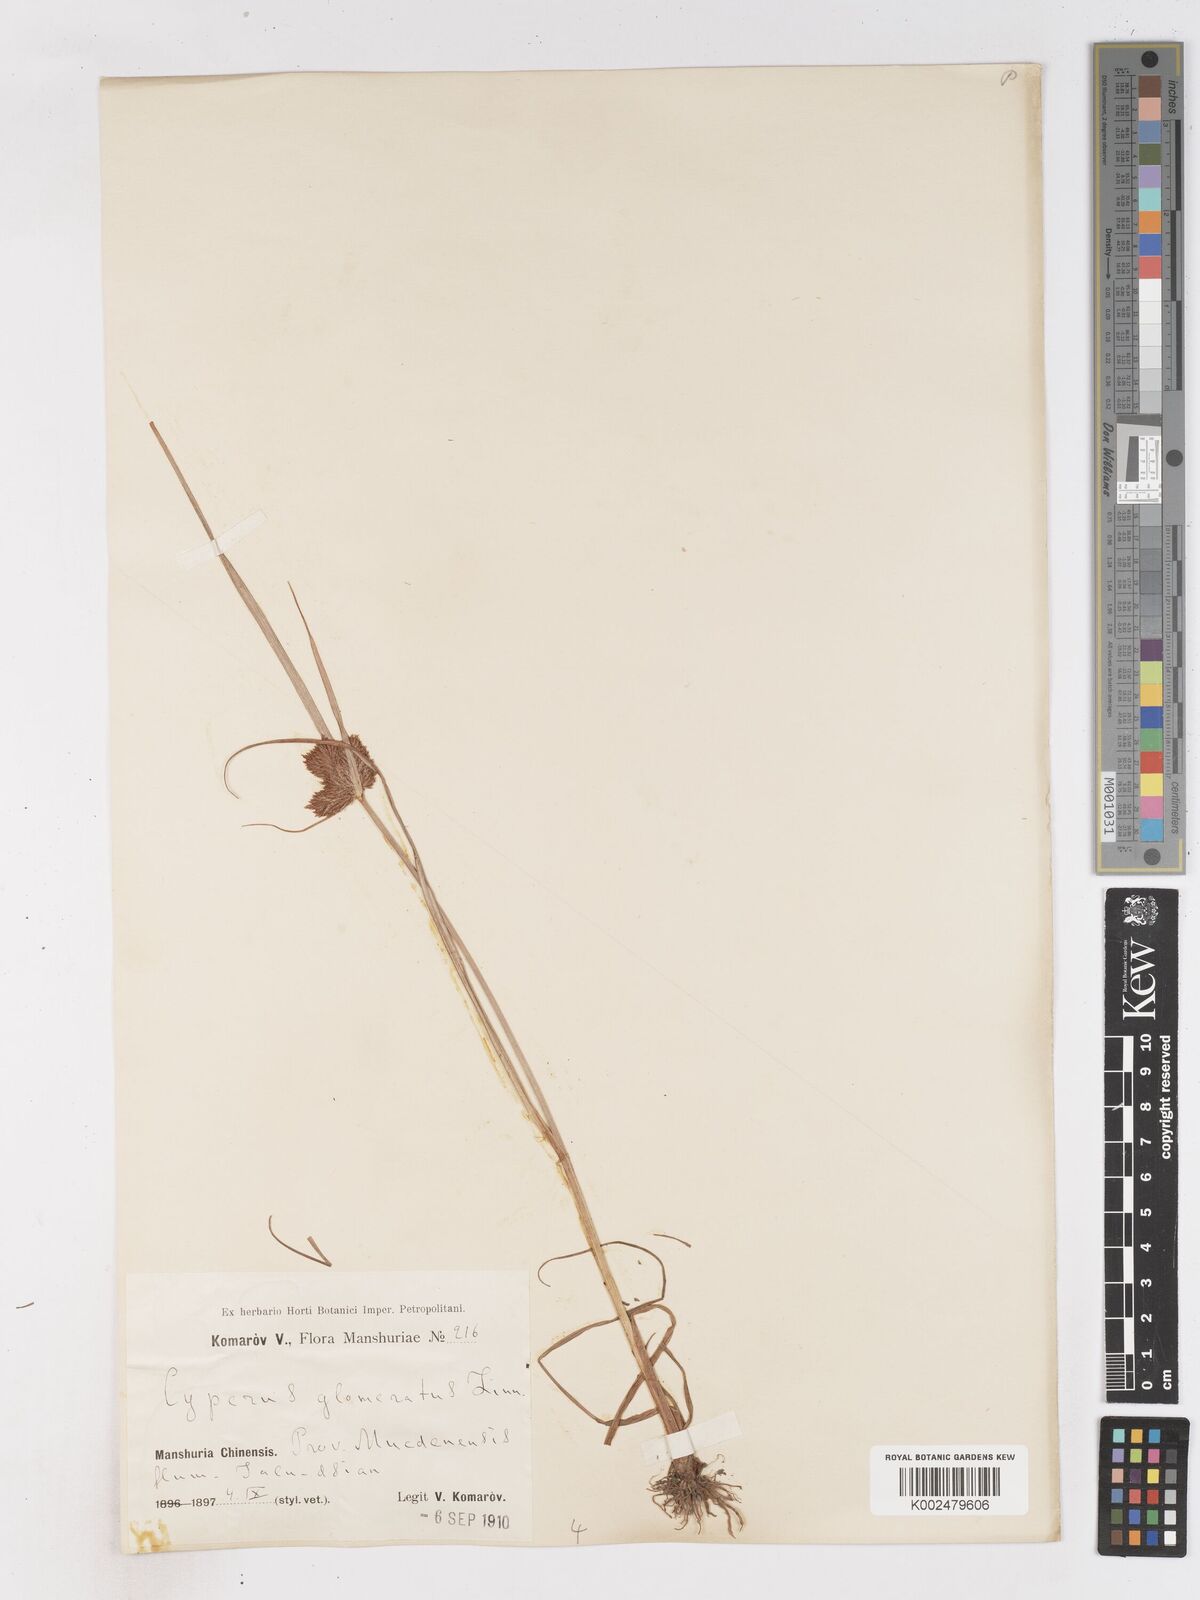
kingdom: Plantae
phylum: Tracheophyta
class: Liliopsida
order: Poales
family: Cyperaceae
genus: Cyperus
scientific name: Cyperus glomeratus
